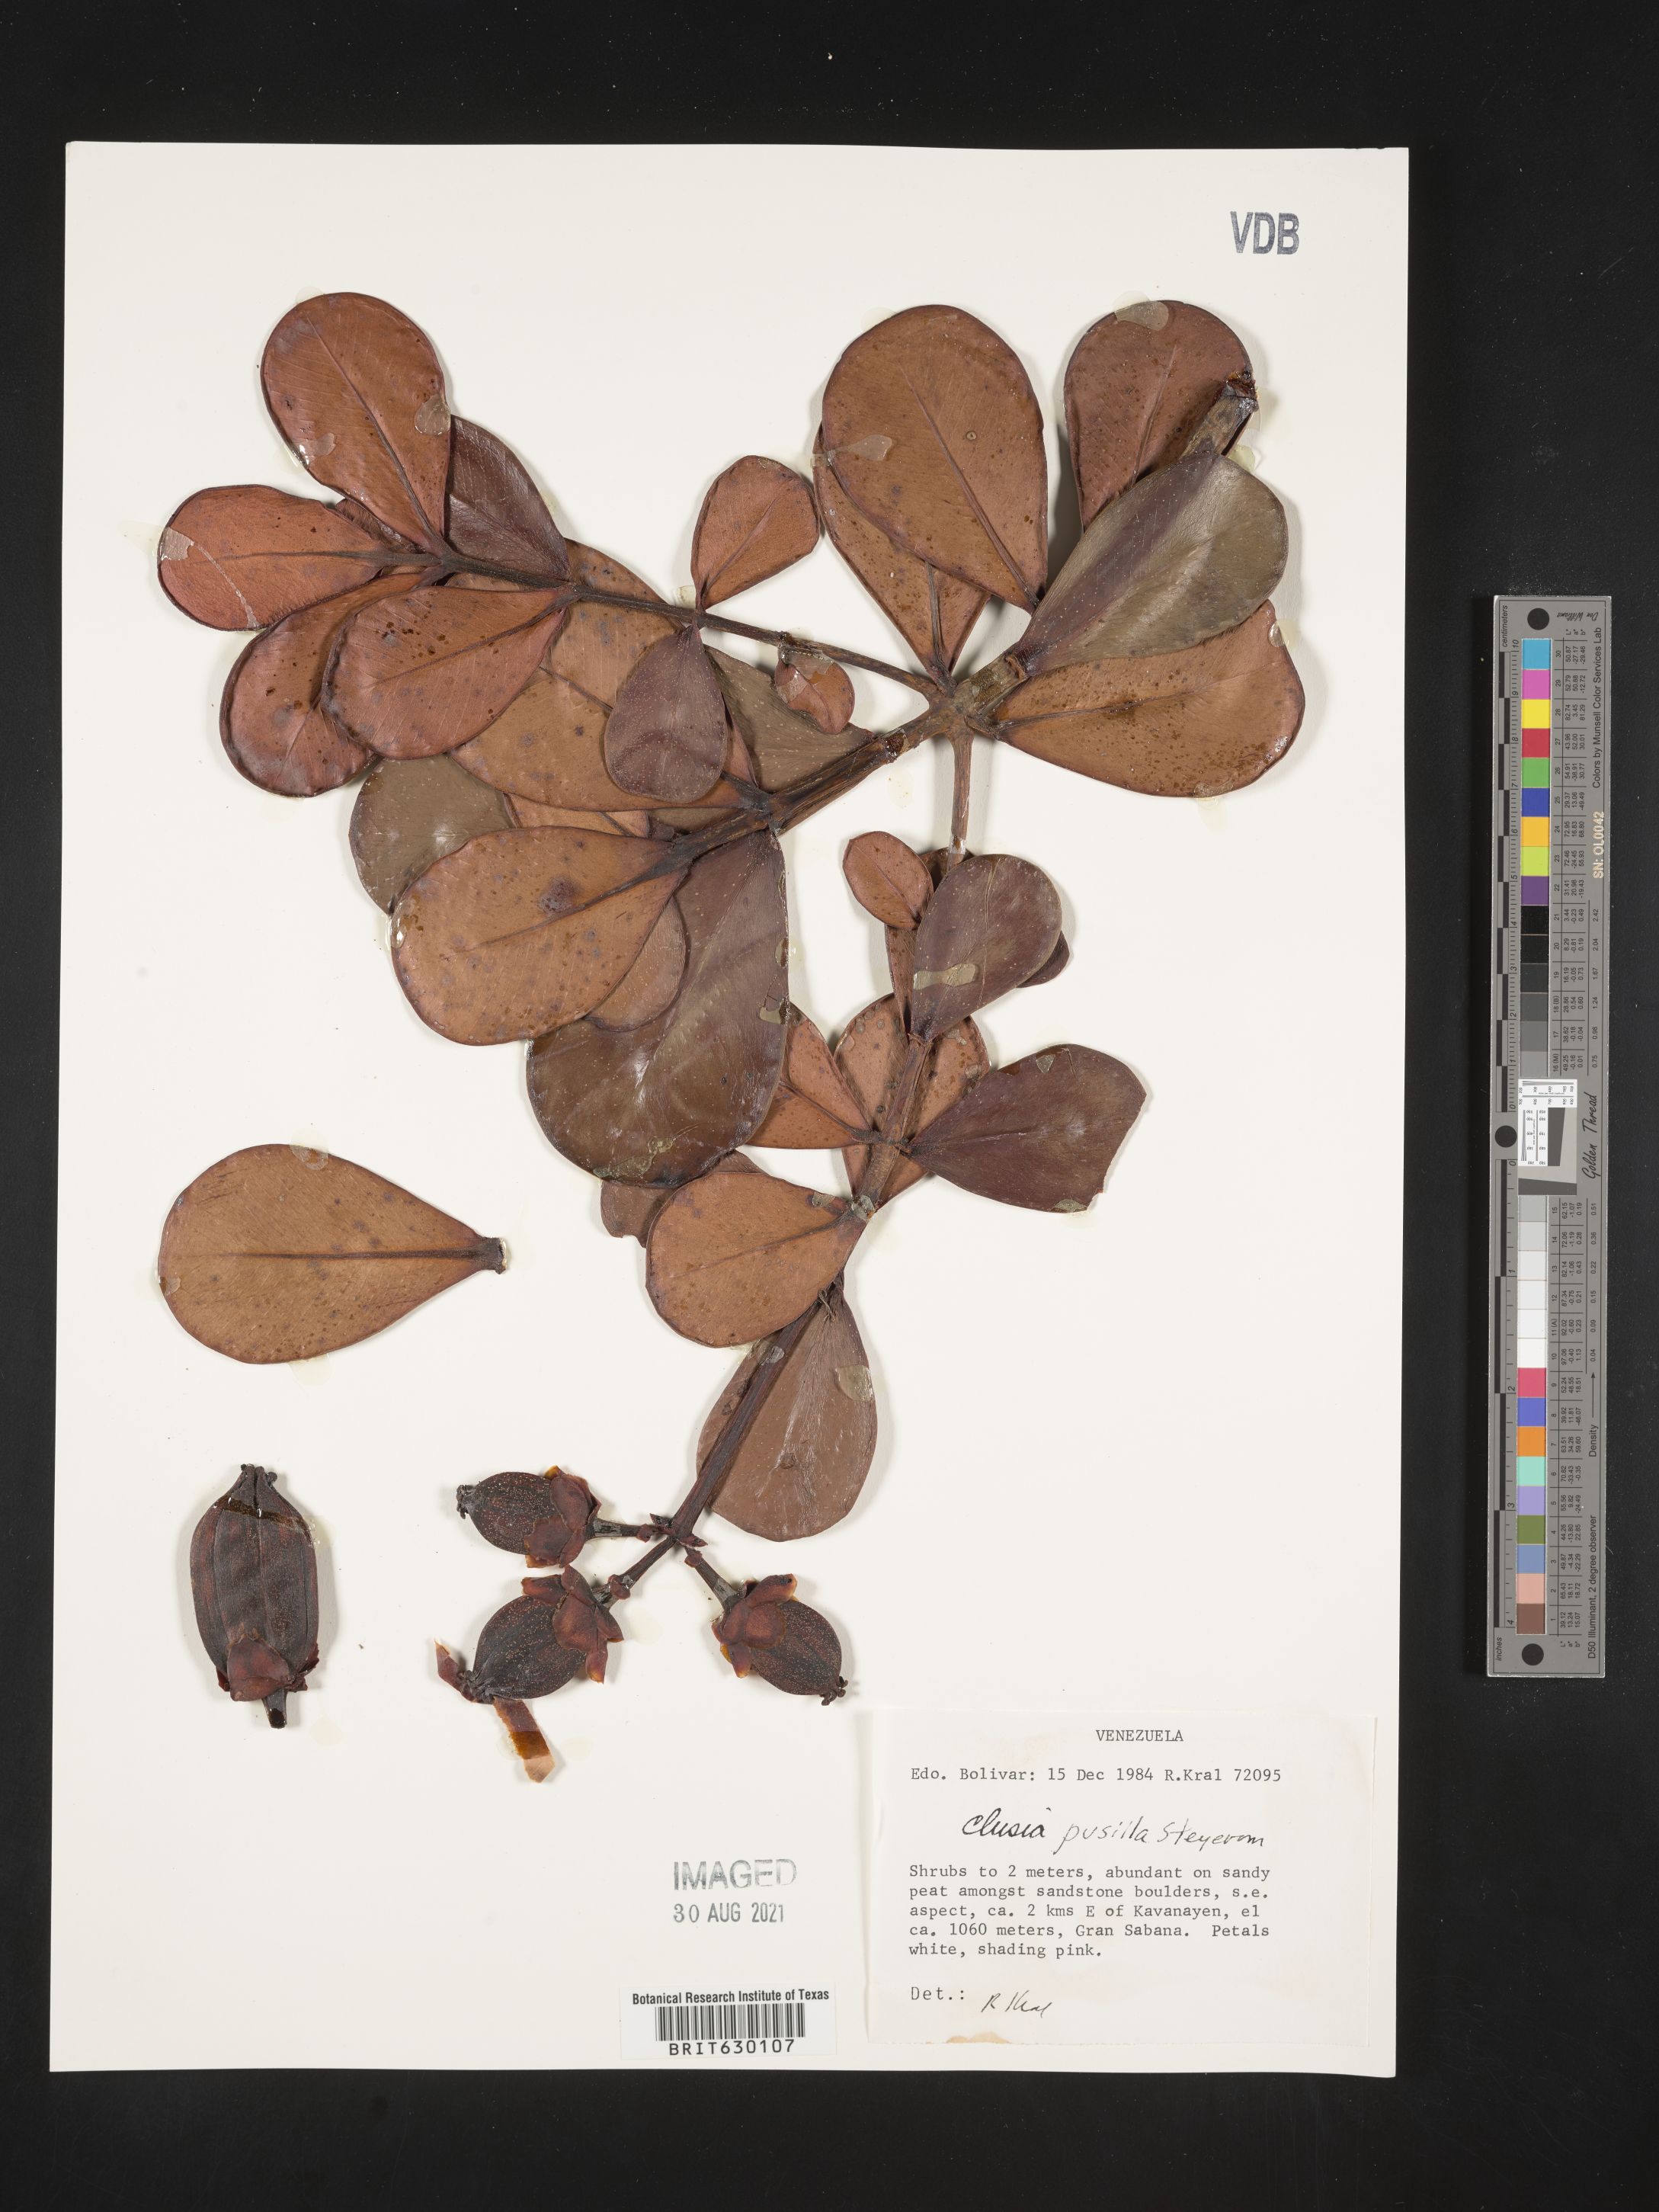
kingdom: Plantae
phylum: Tracheophyta
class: Magnoliopsida
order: Malpighiales
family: Clusiaceae
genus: Clusia
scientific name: Clusia pusilla
